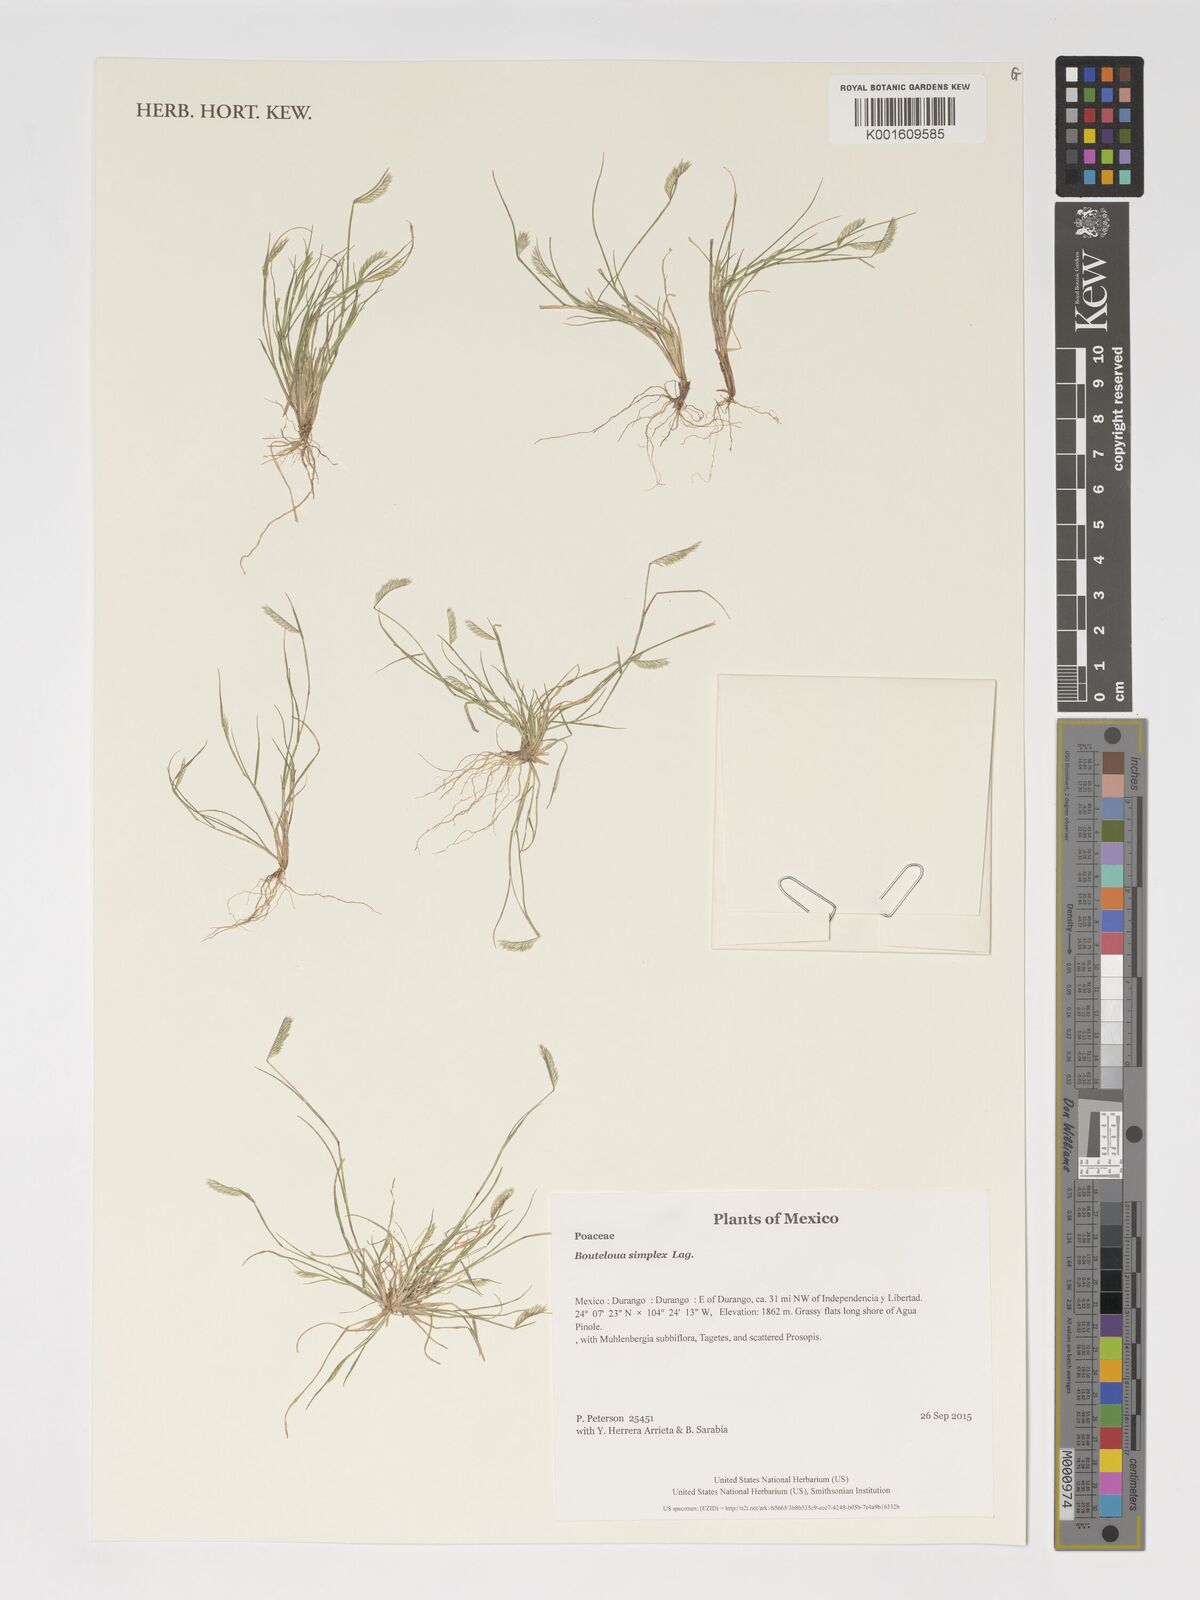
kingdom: Plantae
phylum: Tracheophyta
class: Liliopsida
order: Poales
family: Poaceae
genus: Bouteloua
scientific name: Bouteloua simplex
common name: Mat grama
